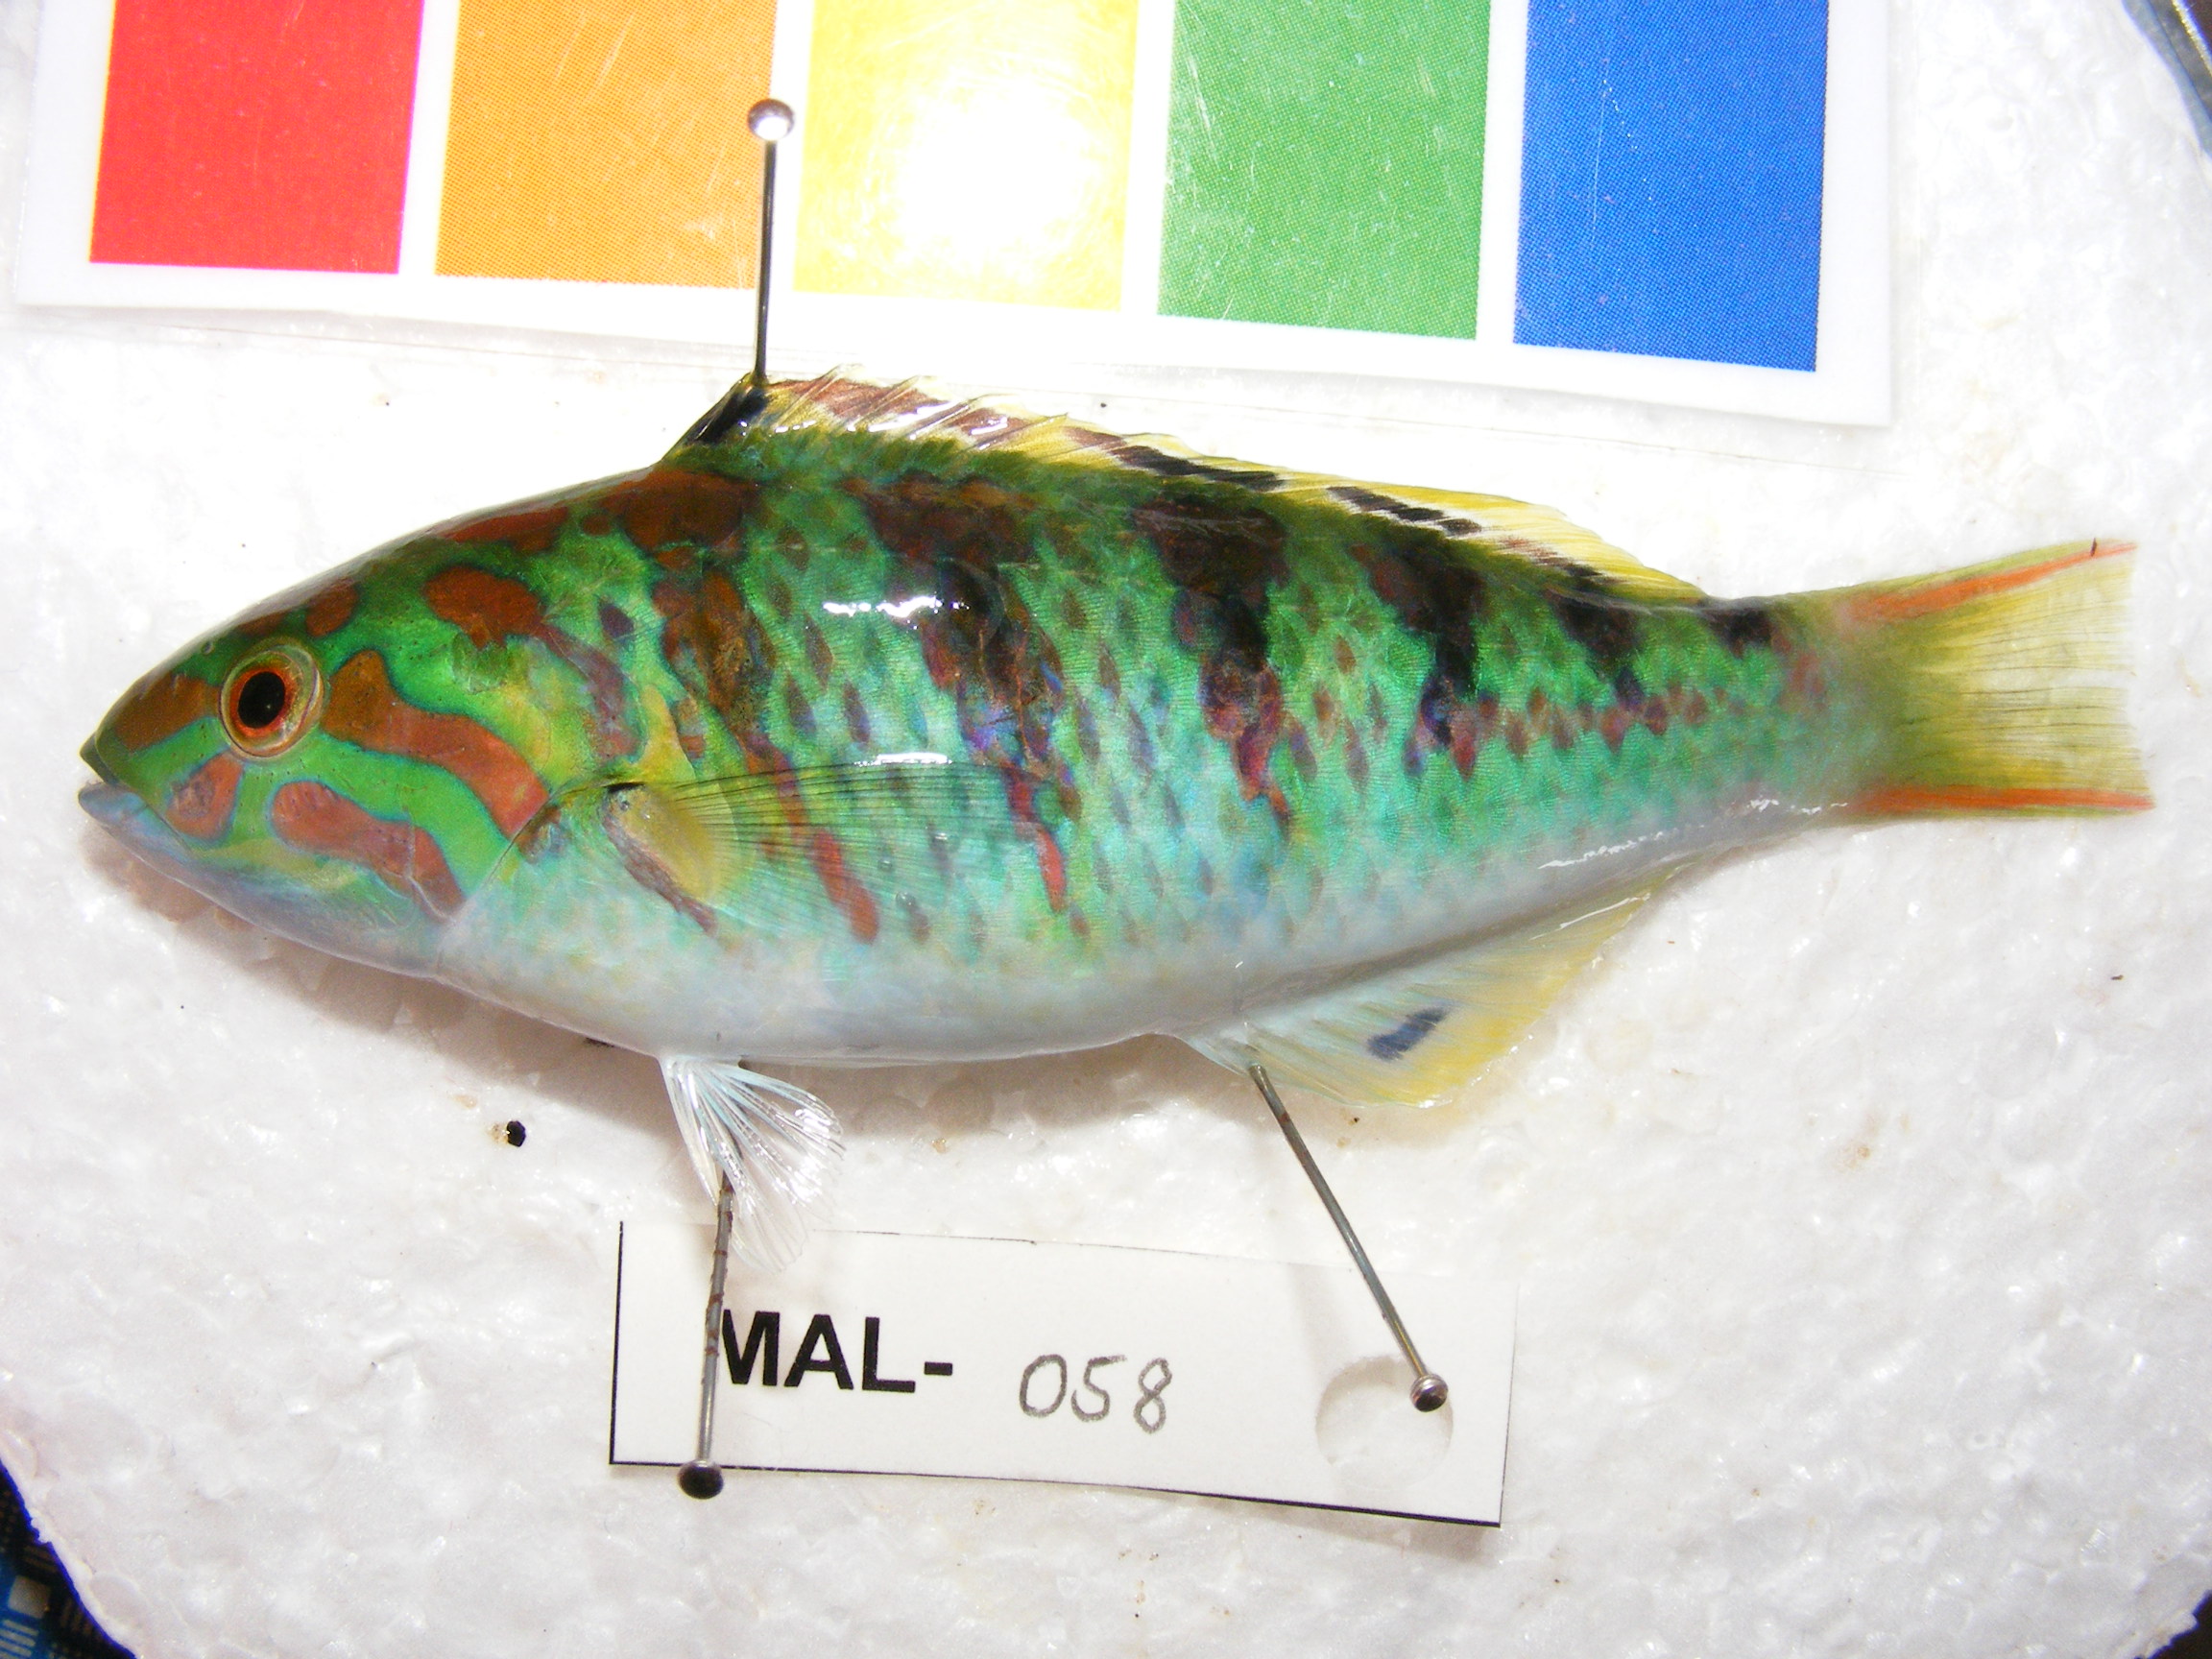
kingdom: Animalia
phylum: Chordata
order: Perciformes
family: Labridae
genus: Thalassoma
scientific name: Thalassoma hardwicke
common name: Sixbar wrasse
